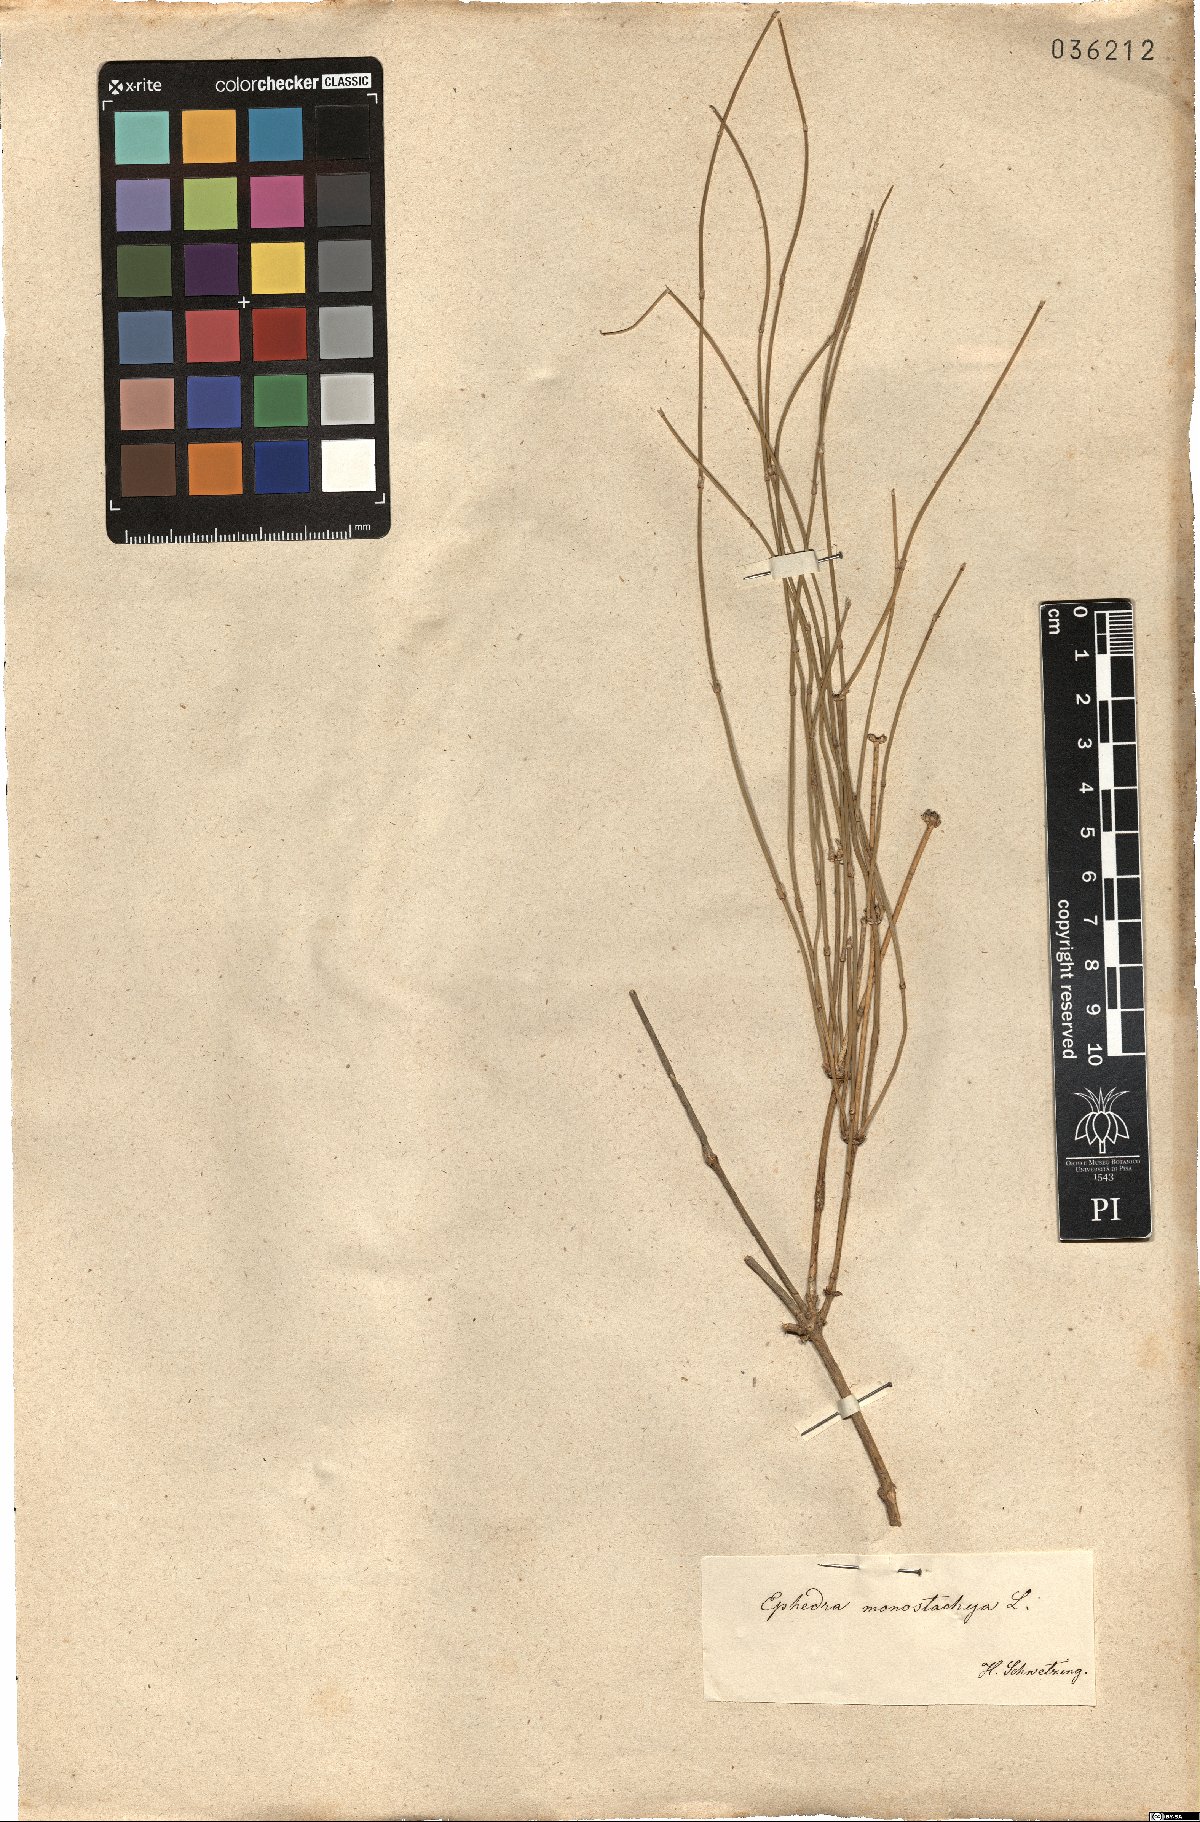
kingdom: Plantae
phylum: Tracheophyta
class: Gnetopsida
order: Ephedrales
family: Ephedraceae
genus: Ephedra
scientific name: Ephedra distachya
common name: Sea grape
